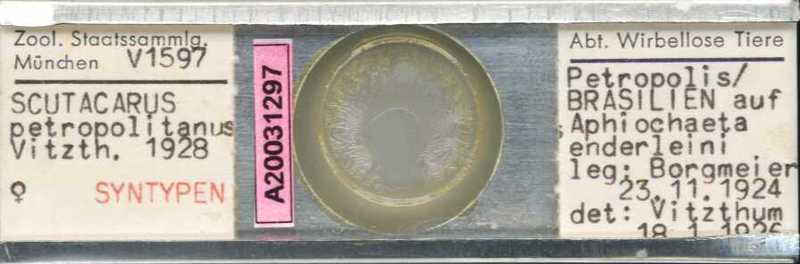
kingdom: Animalia
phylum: Arthropoda
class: Arachnida
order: Trombidiformes
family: Scutacaridae
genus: Scutacarus
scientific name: Scutacarus
